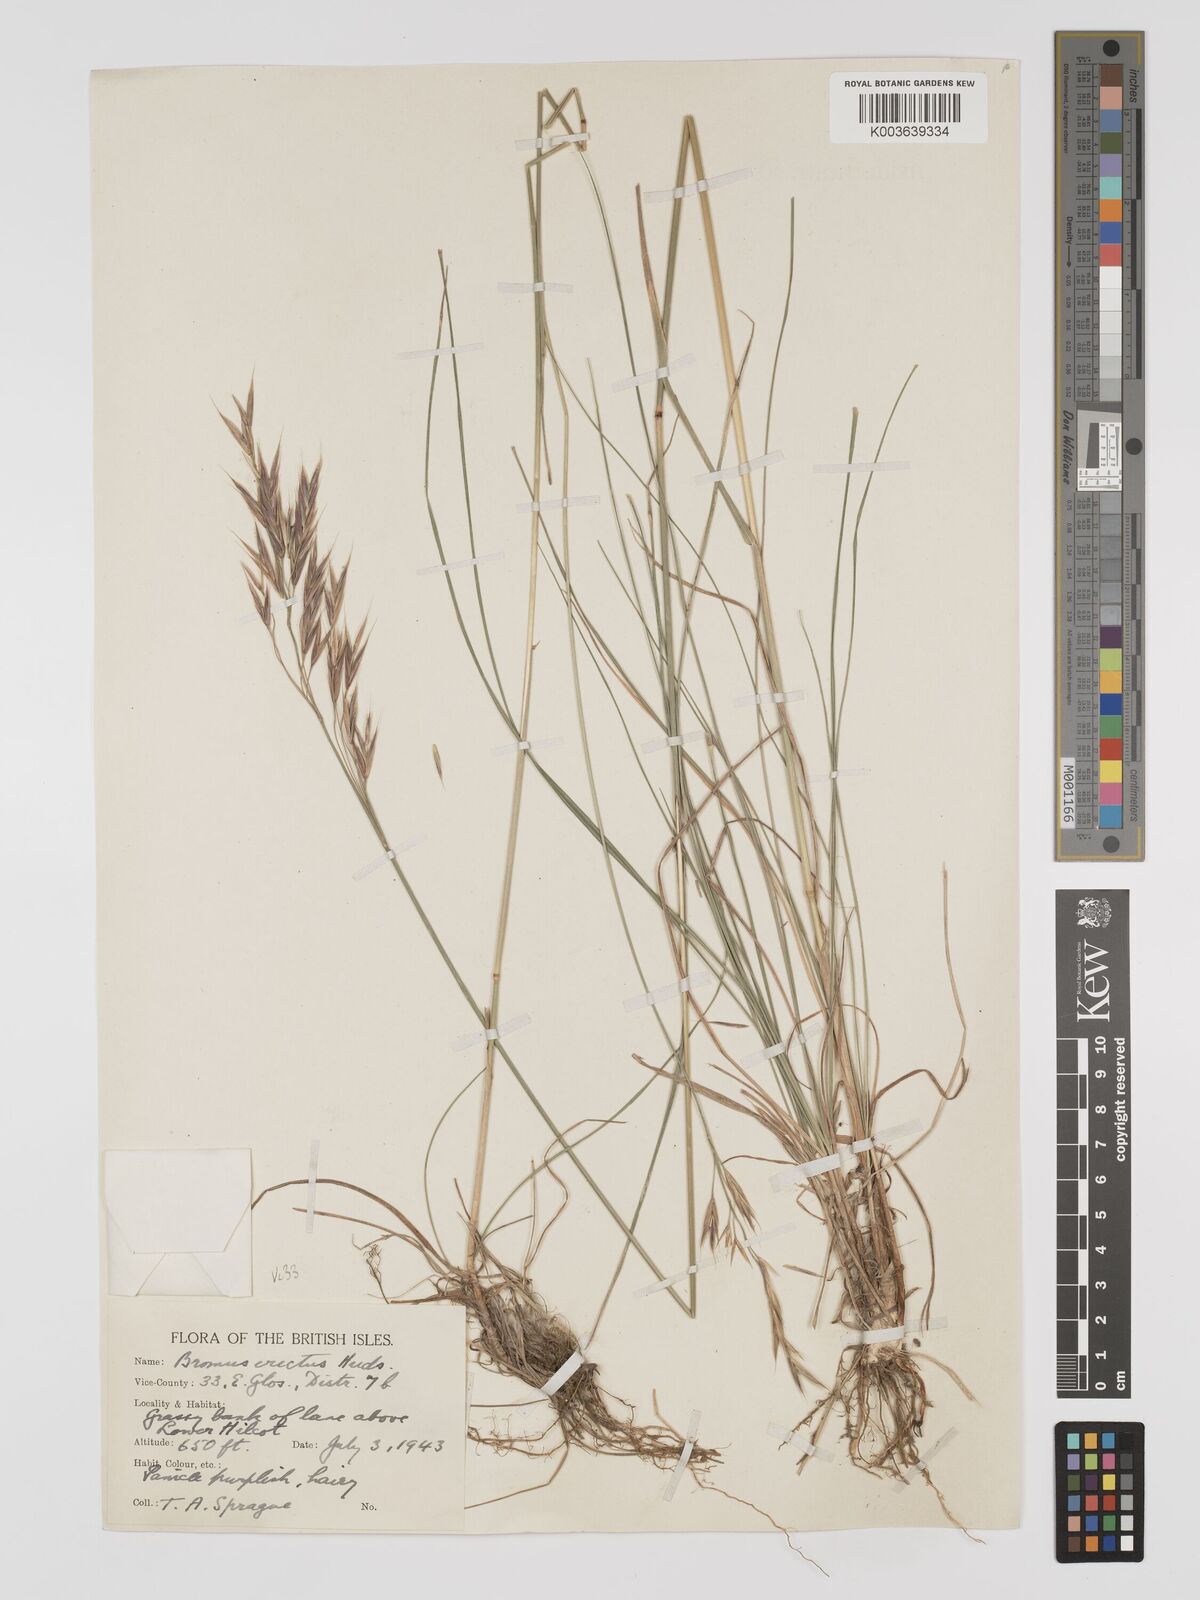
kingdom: Plantae
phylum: Tracheophyta
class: Liliopsida
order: Poales
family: Poaceae
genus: Bromus
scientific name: Bromus erectus
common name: Erect brome
